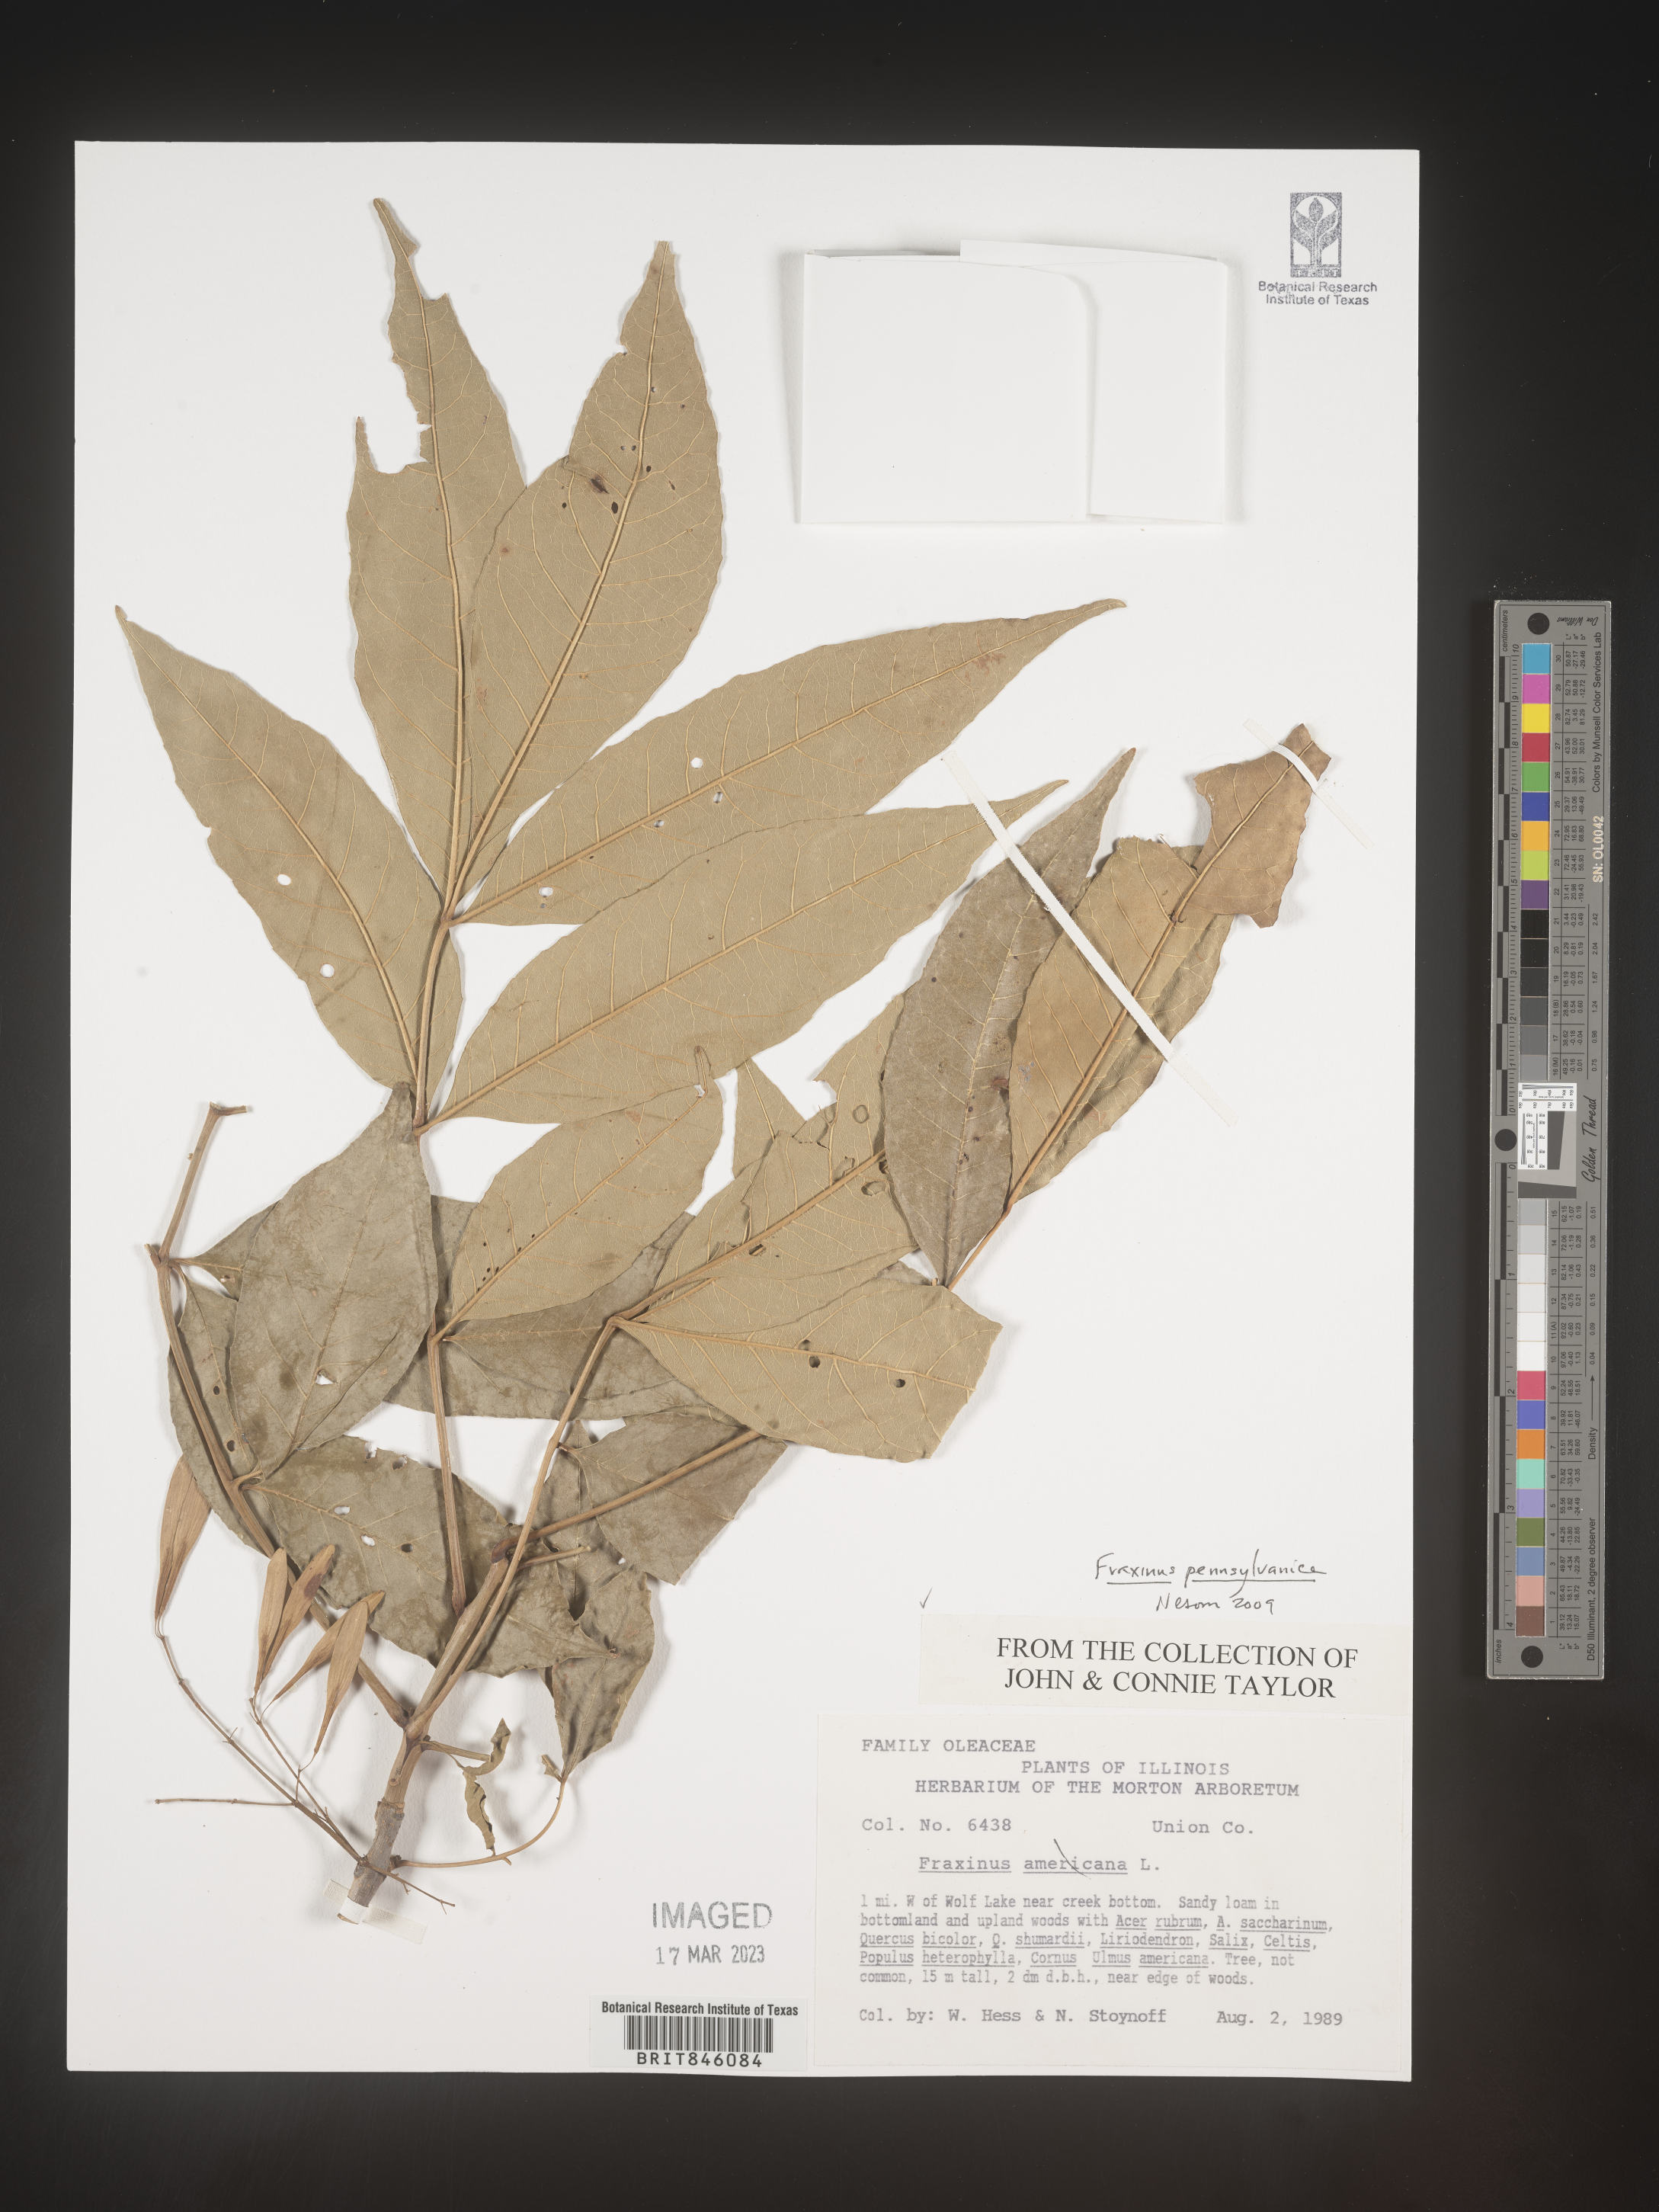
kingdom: Plantae
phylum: Tracheophyta
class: Magnoliopsida
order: Lamiales
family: Oleaceae
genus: Fraxinus
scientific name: Fraxinus pennsylvanica
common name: Green ash
